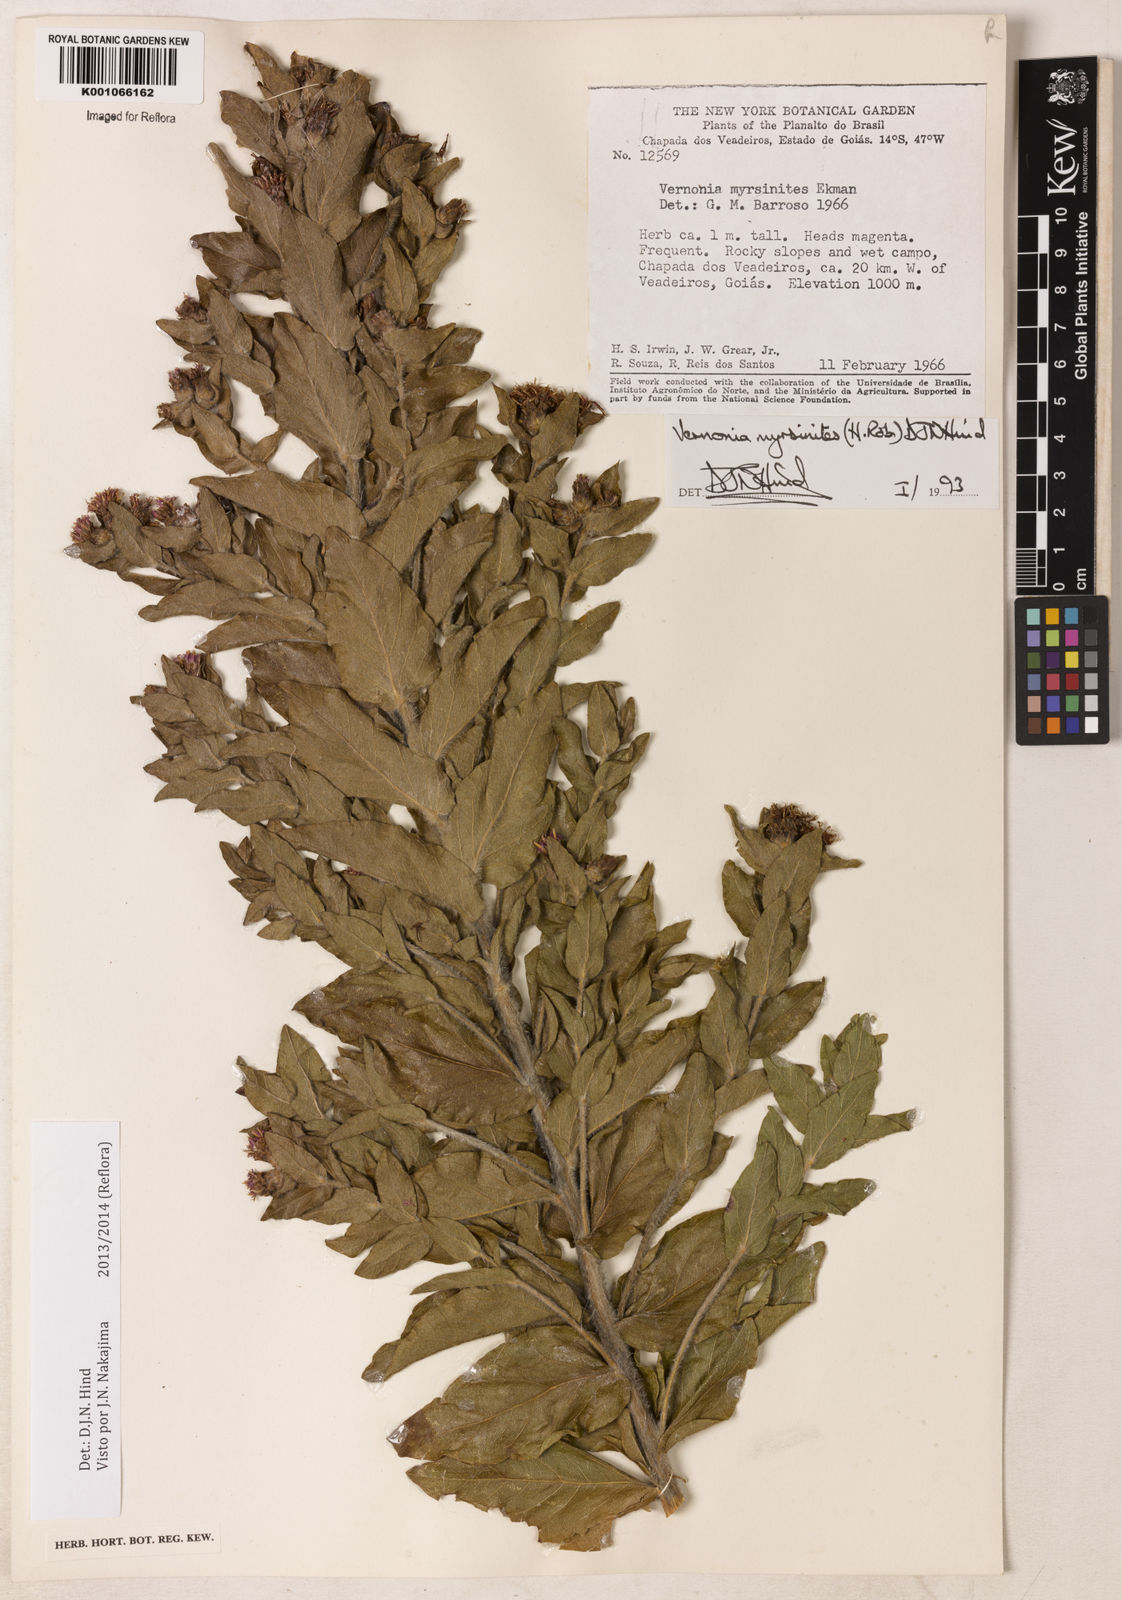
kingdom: Plantae
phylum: Tracheophyta
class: Magnoliopsida
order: Asterales
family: Asteraceae
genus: Lessingianthus
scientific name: Lessingianthus myrsinites
